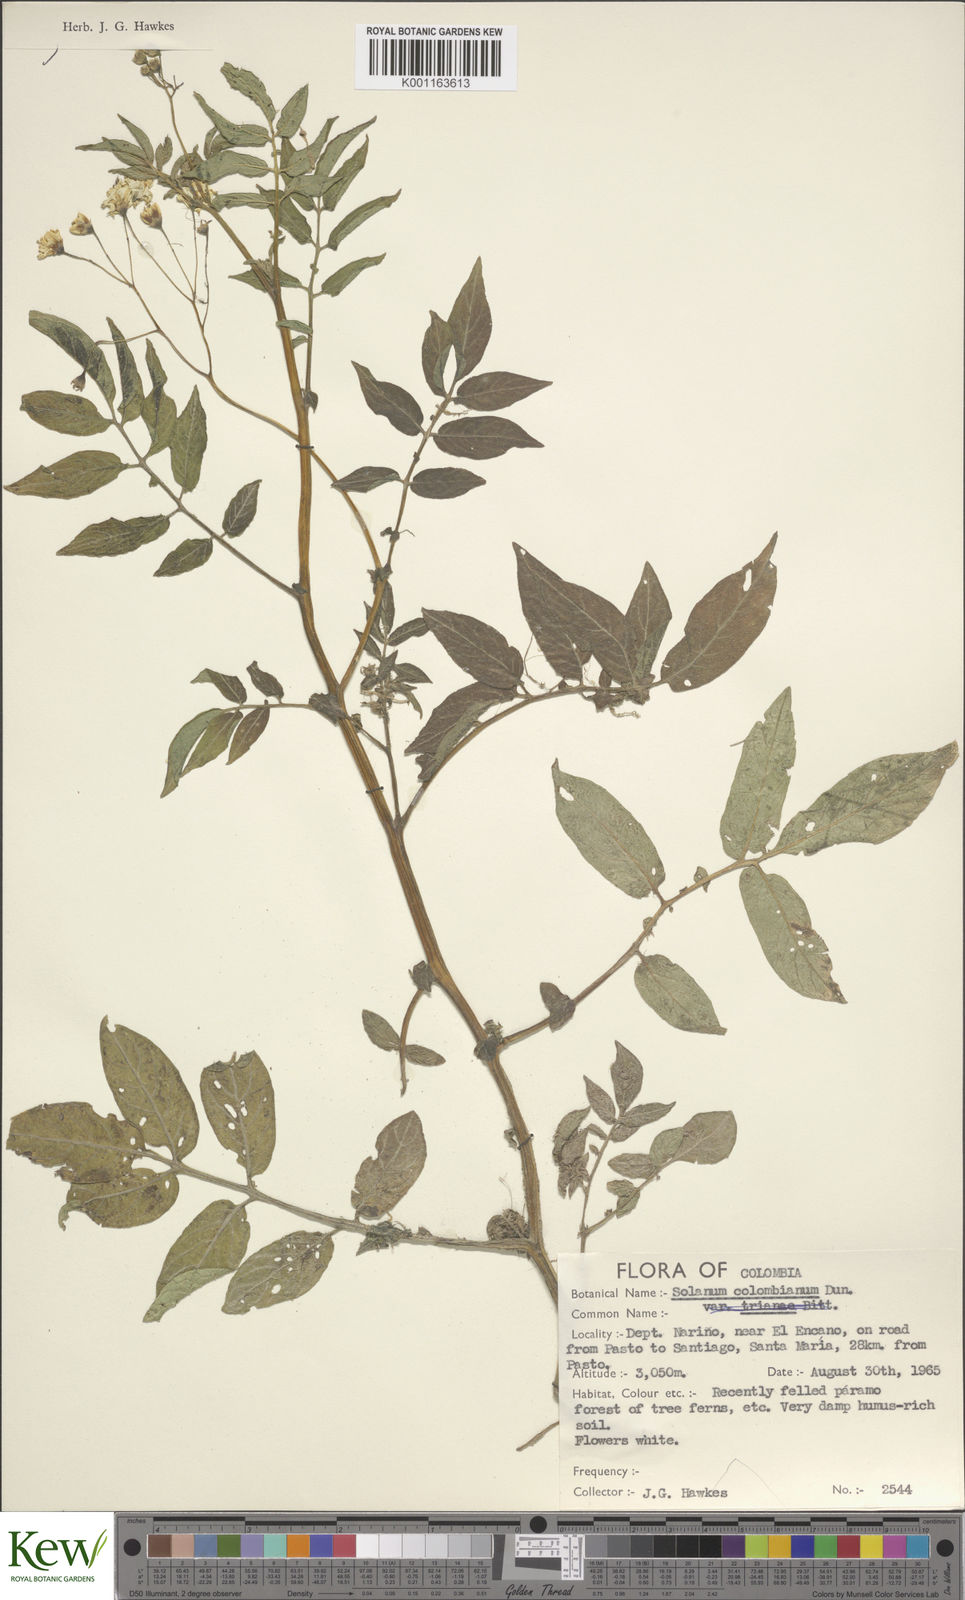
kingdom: Plantae
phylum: Tracheophyta
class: Magnoliopsida
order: Solanales
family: Solanaceae
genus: Solanum
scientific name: Solanum colombianum
